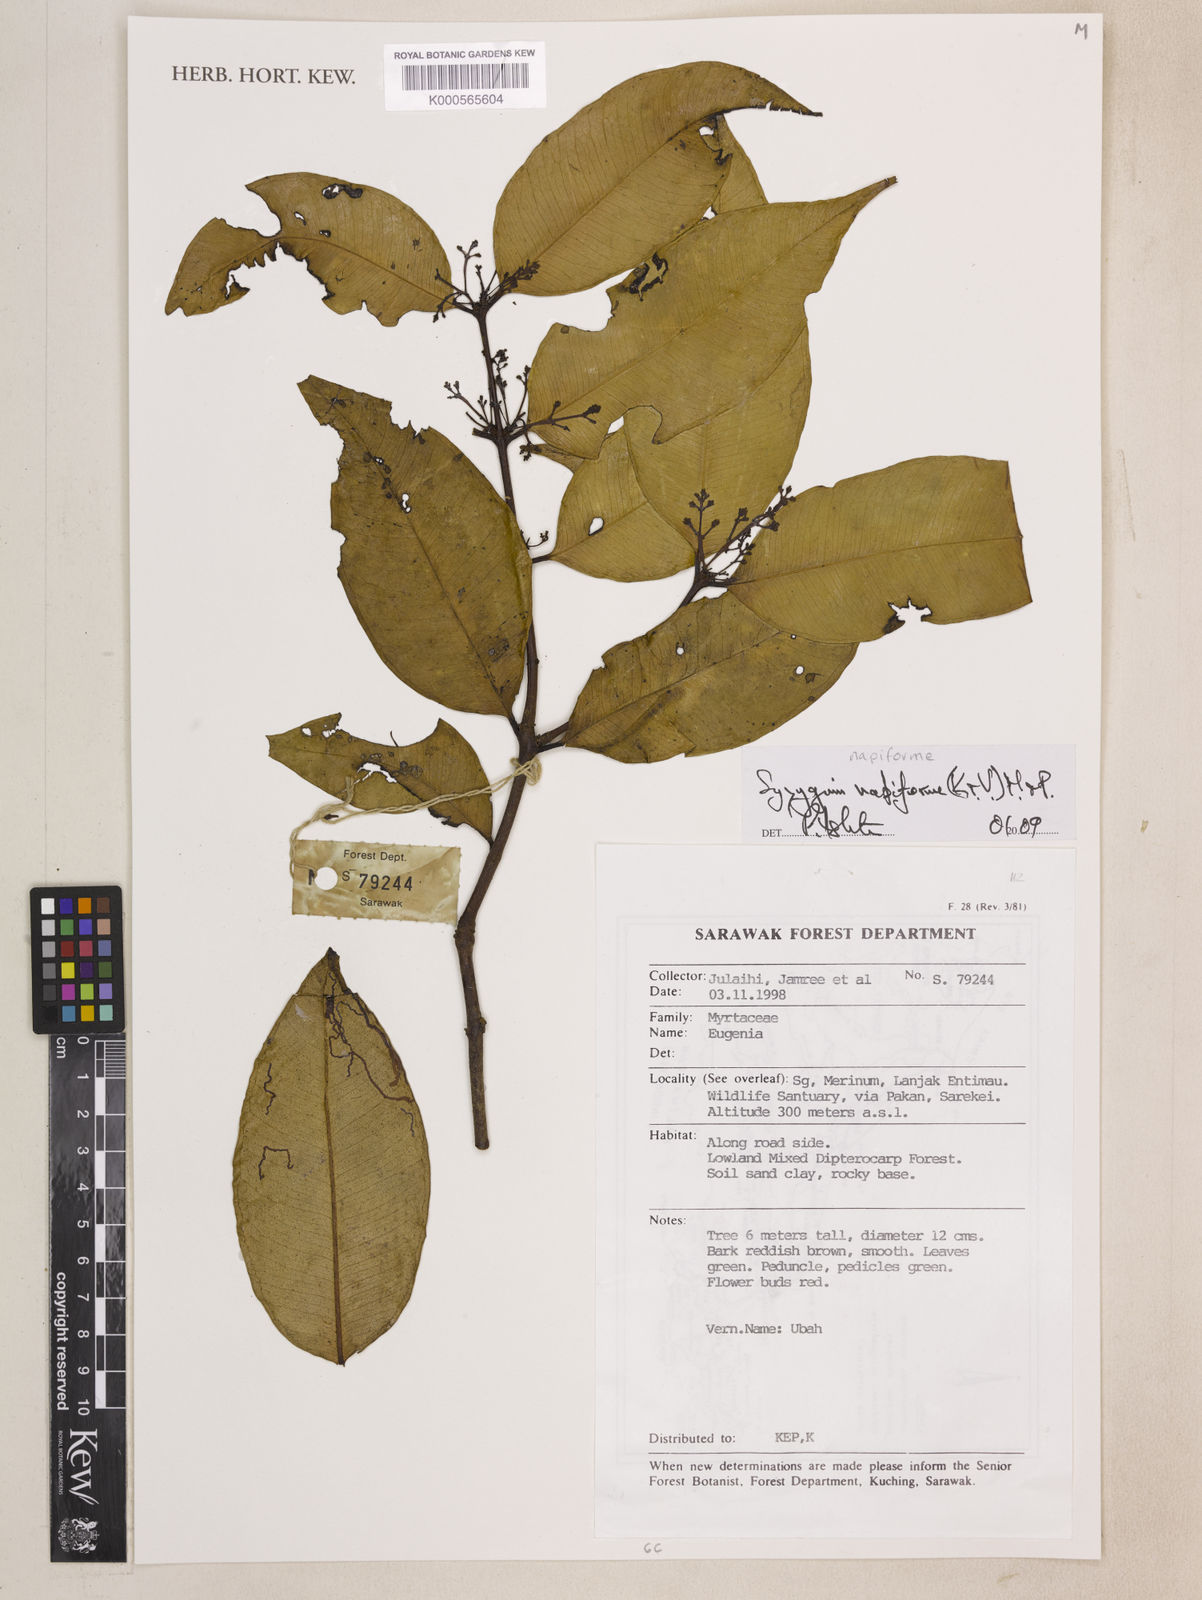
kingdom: Plantae
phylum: Tracheophyta
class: Magnoliopsida
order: Myrtales
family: Myrtaceae
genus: Syzygium
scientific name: Syzygium napiforme
